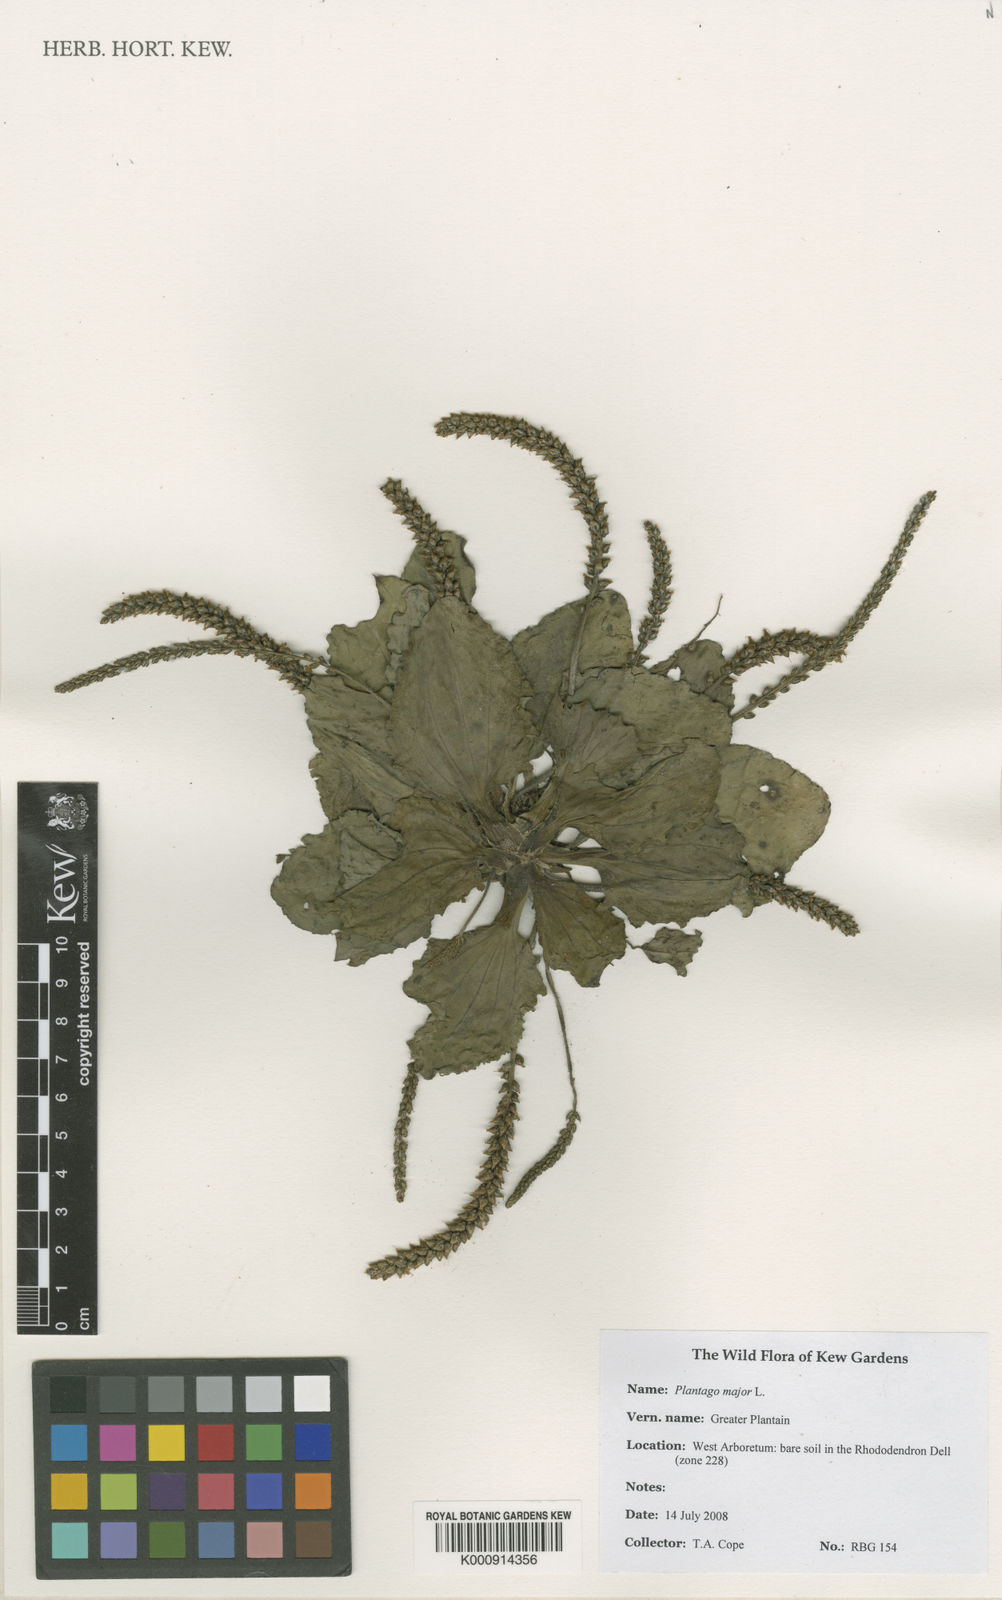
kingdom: Plantae
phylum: Tracheophyta
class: Magnoliopsida
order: Lamiales
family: Plantaginaceae
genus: Plantago
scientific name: Plantago major
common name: Common plantain
